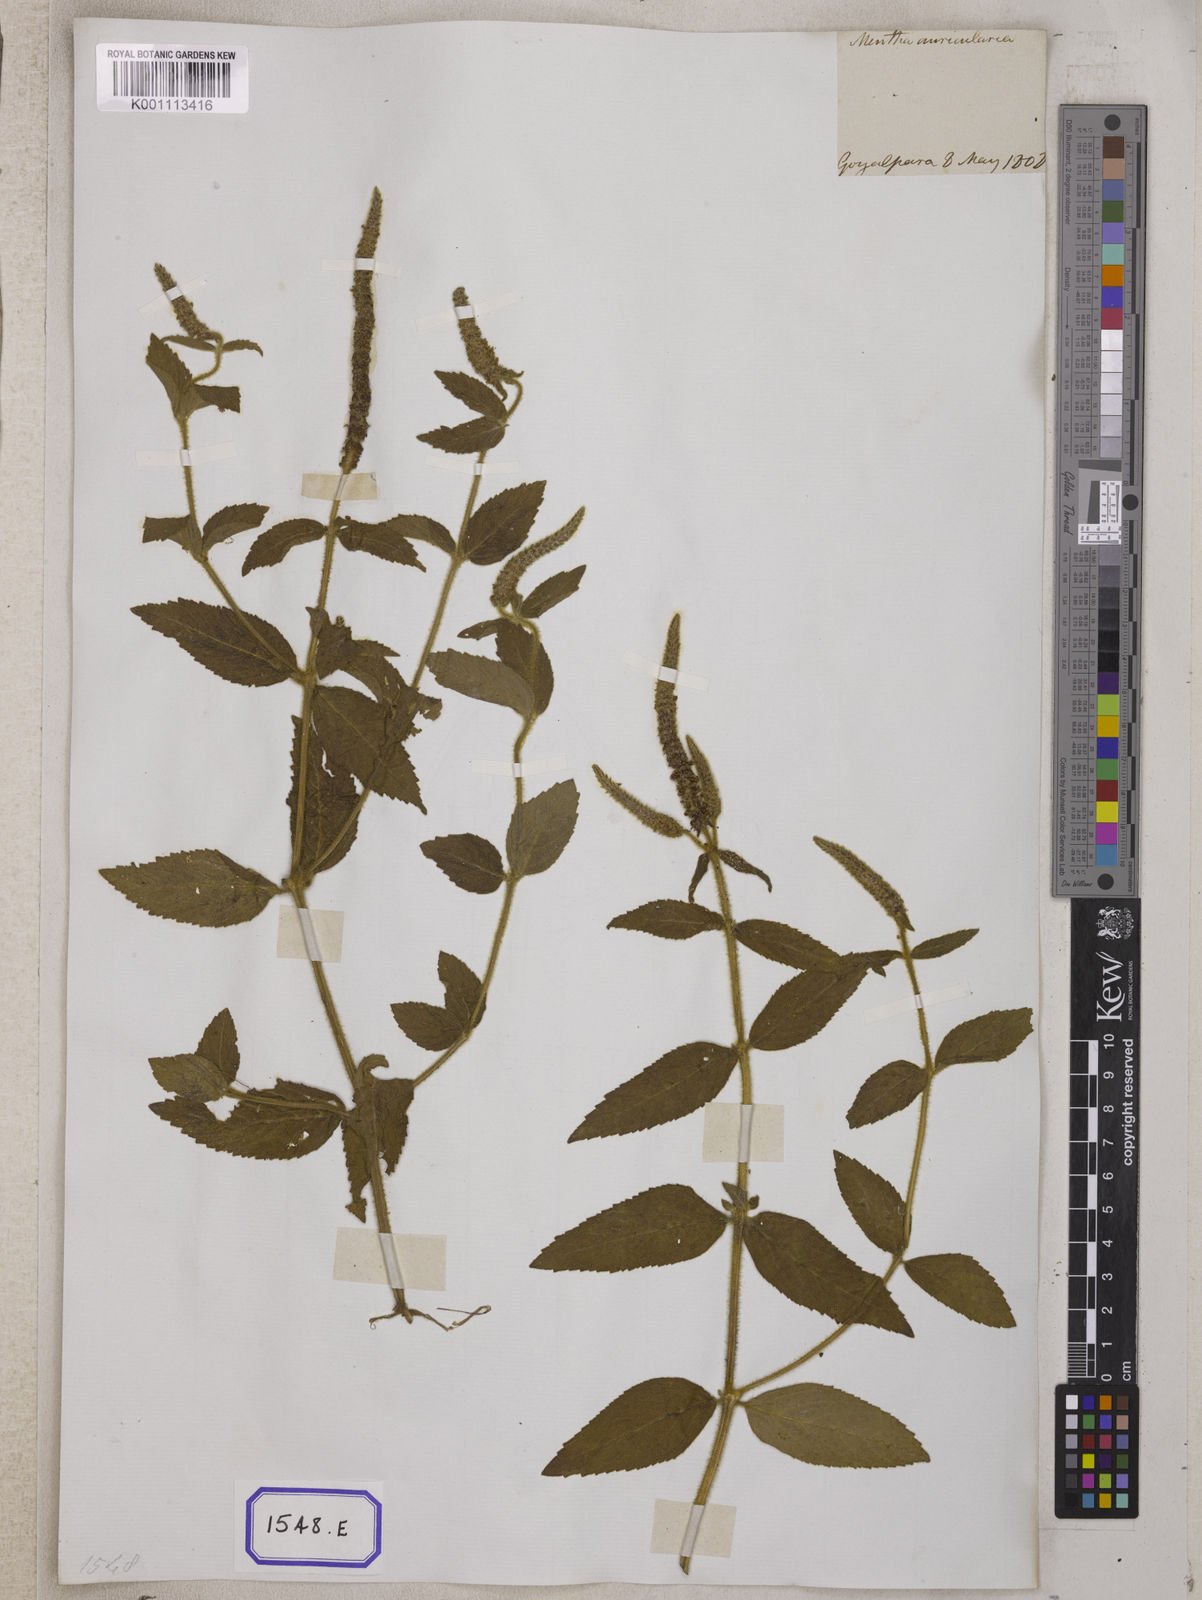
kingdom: Plantae
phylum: Tracheophyta
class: Magnoliopsida
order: Lamiales
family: Lamiaceae
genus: Pogostemon
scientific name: Pogostemon auricularius
